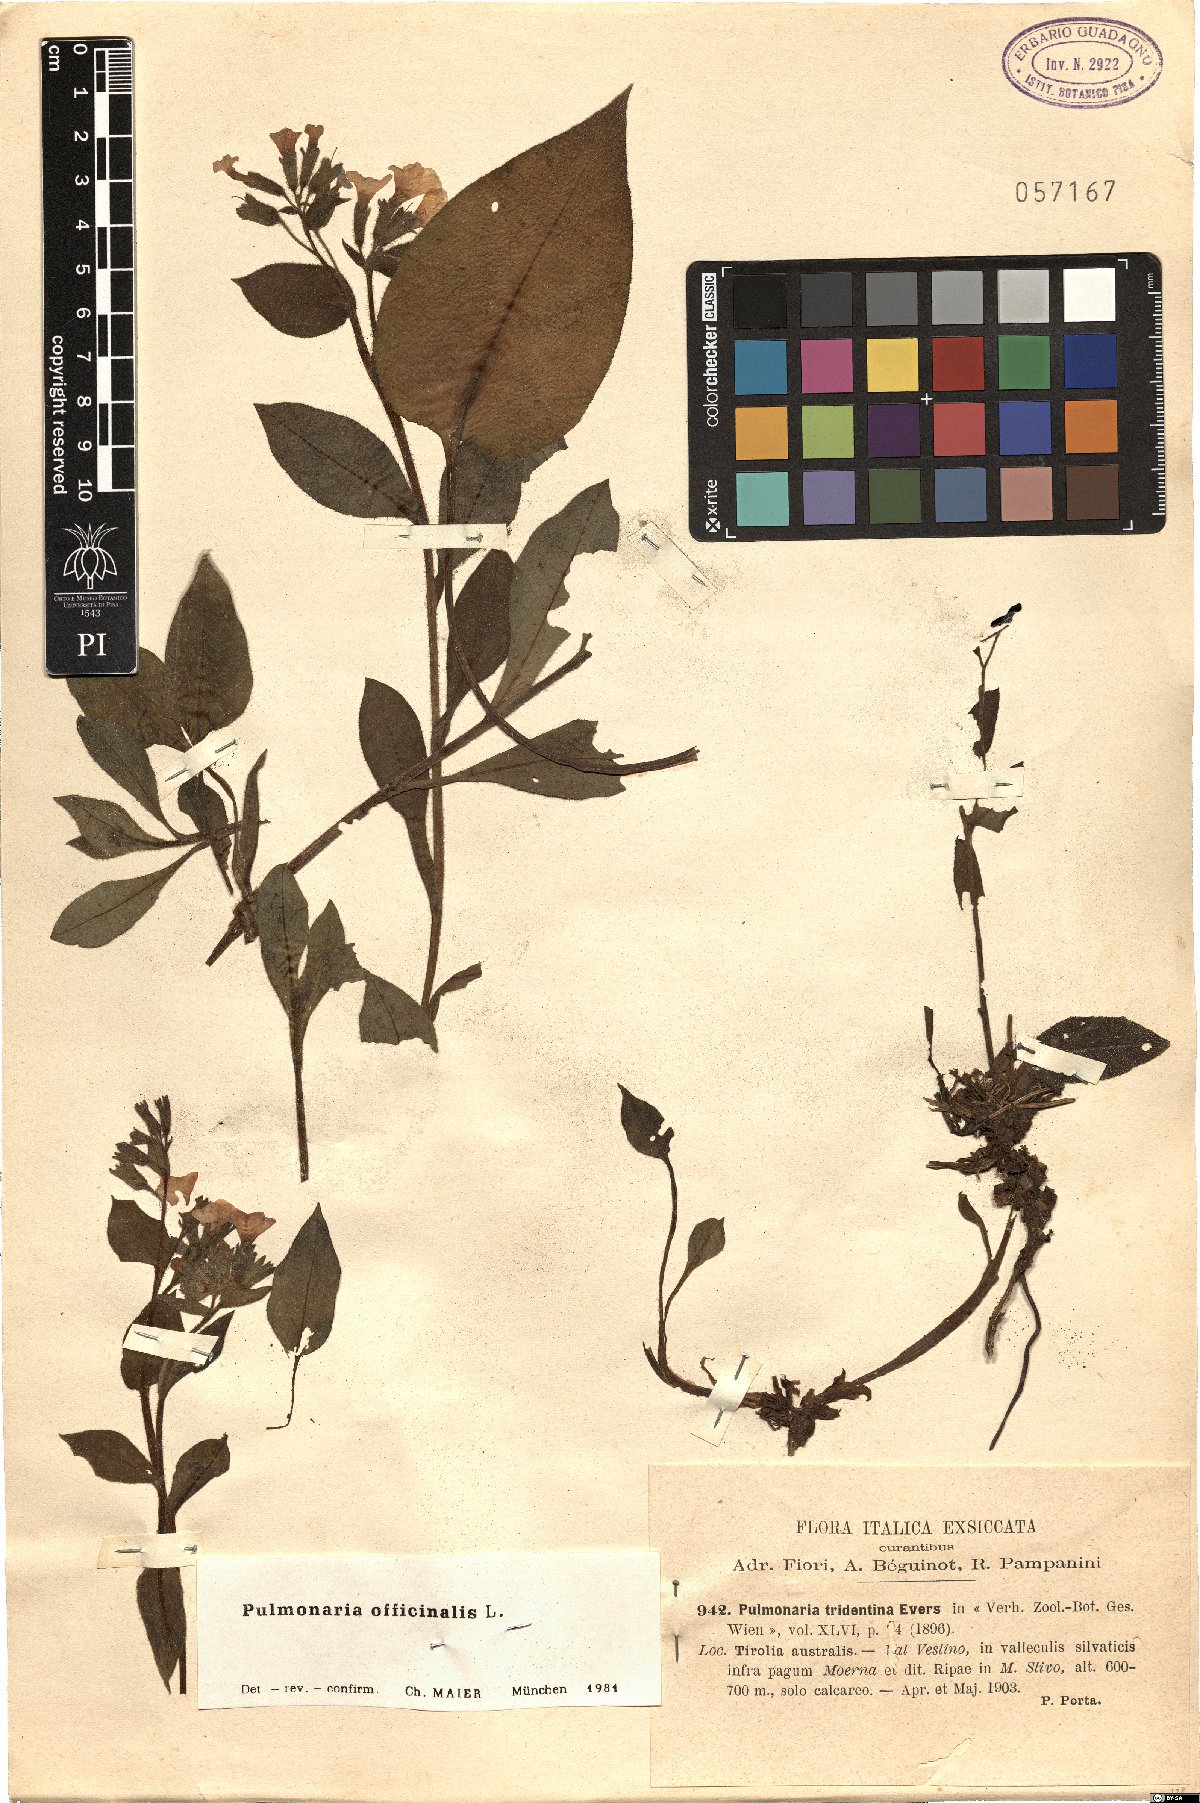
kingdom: Plantae
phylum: Tracheophyta
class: Magnoliopsida
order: Boraginales
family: Boraginaceae
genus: Pulmonaria
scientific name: Pulmonaria officinalis
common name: Lungwort
